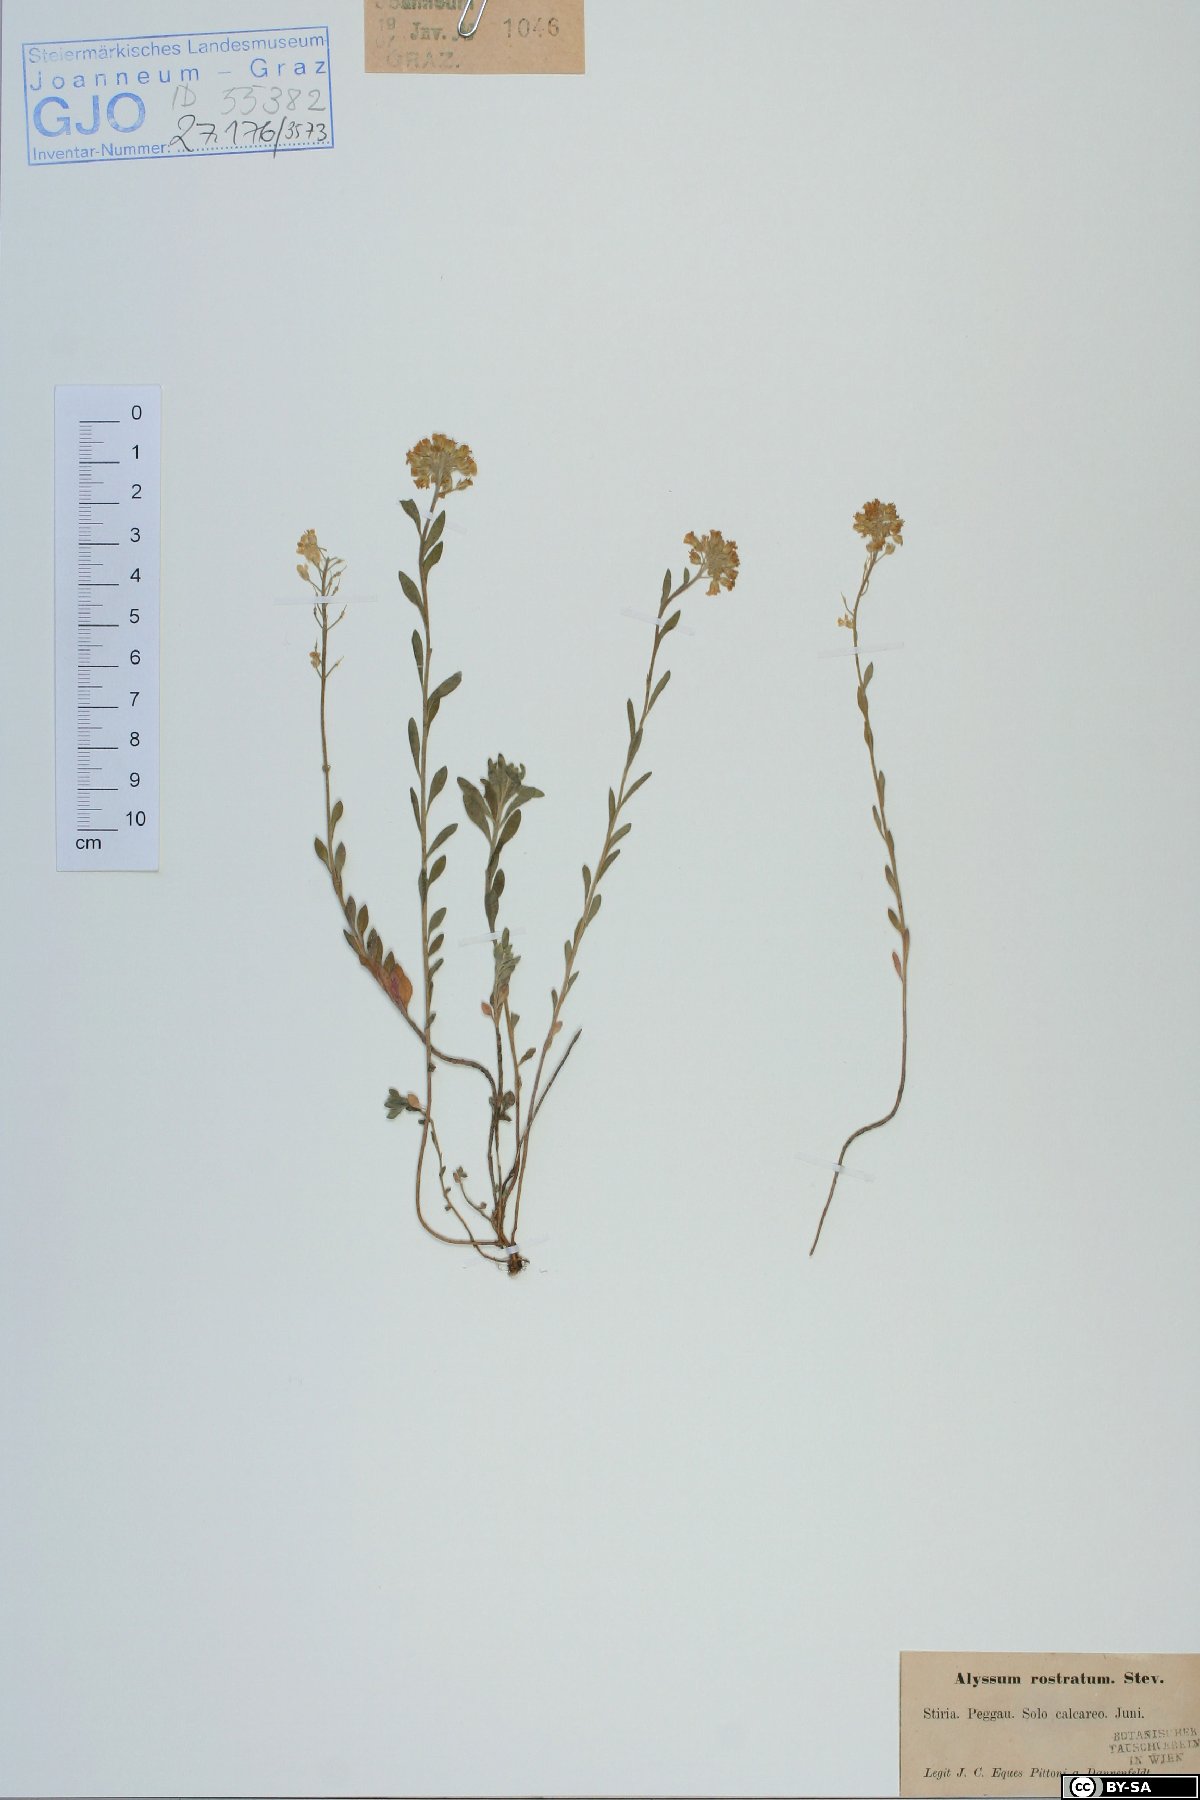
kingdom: Plantae
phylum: Tracheophyta
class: Magnoliopsida
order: Brassicales
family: Brassicaceae
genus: Alyssum
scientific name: Alyssum rostratum
